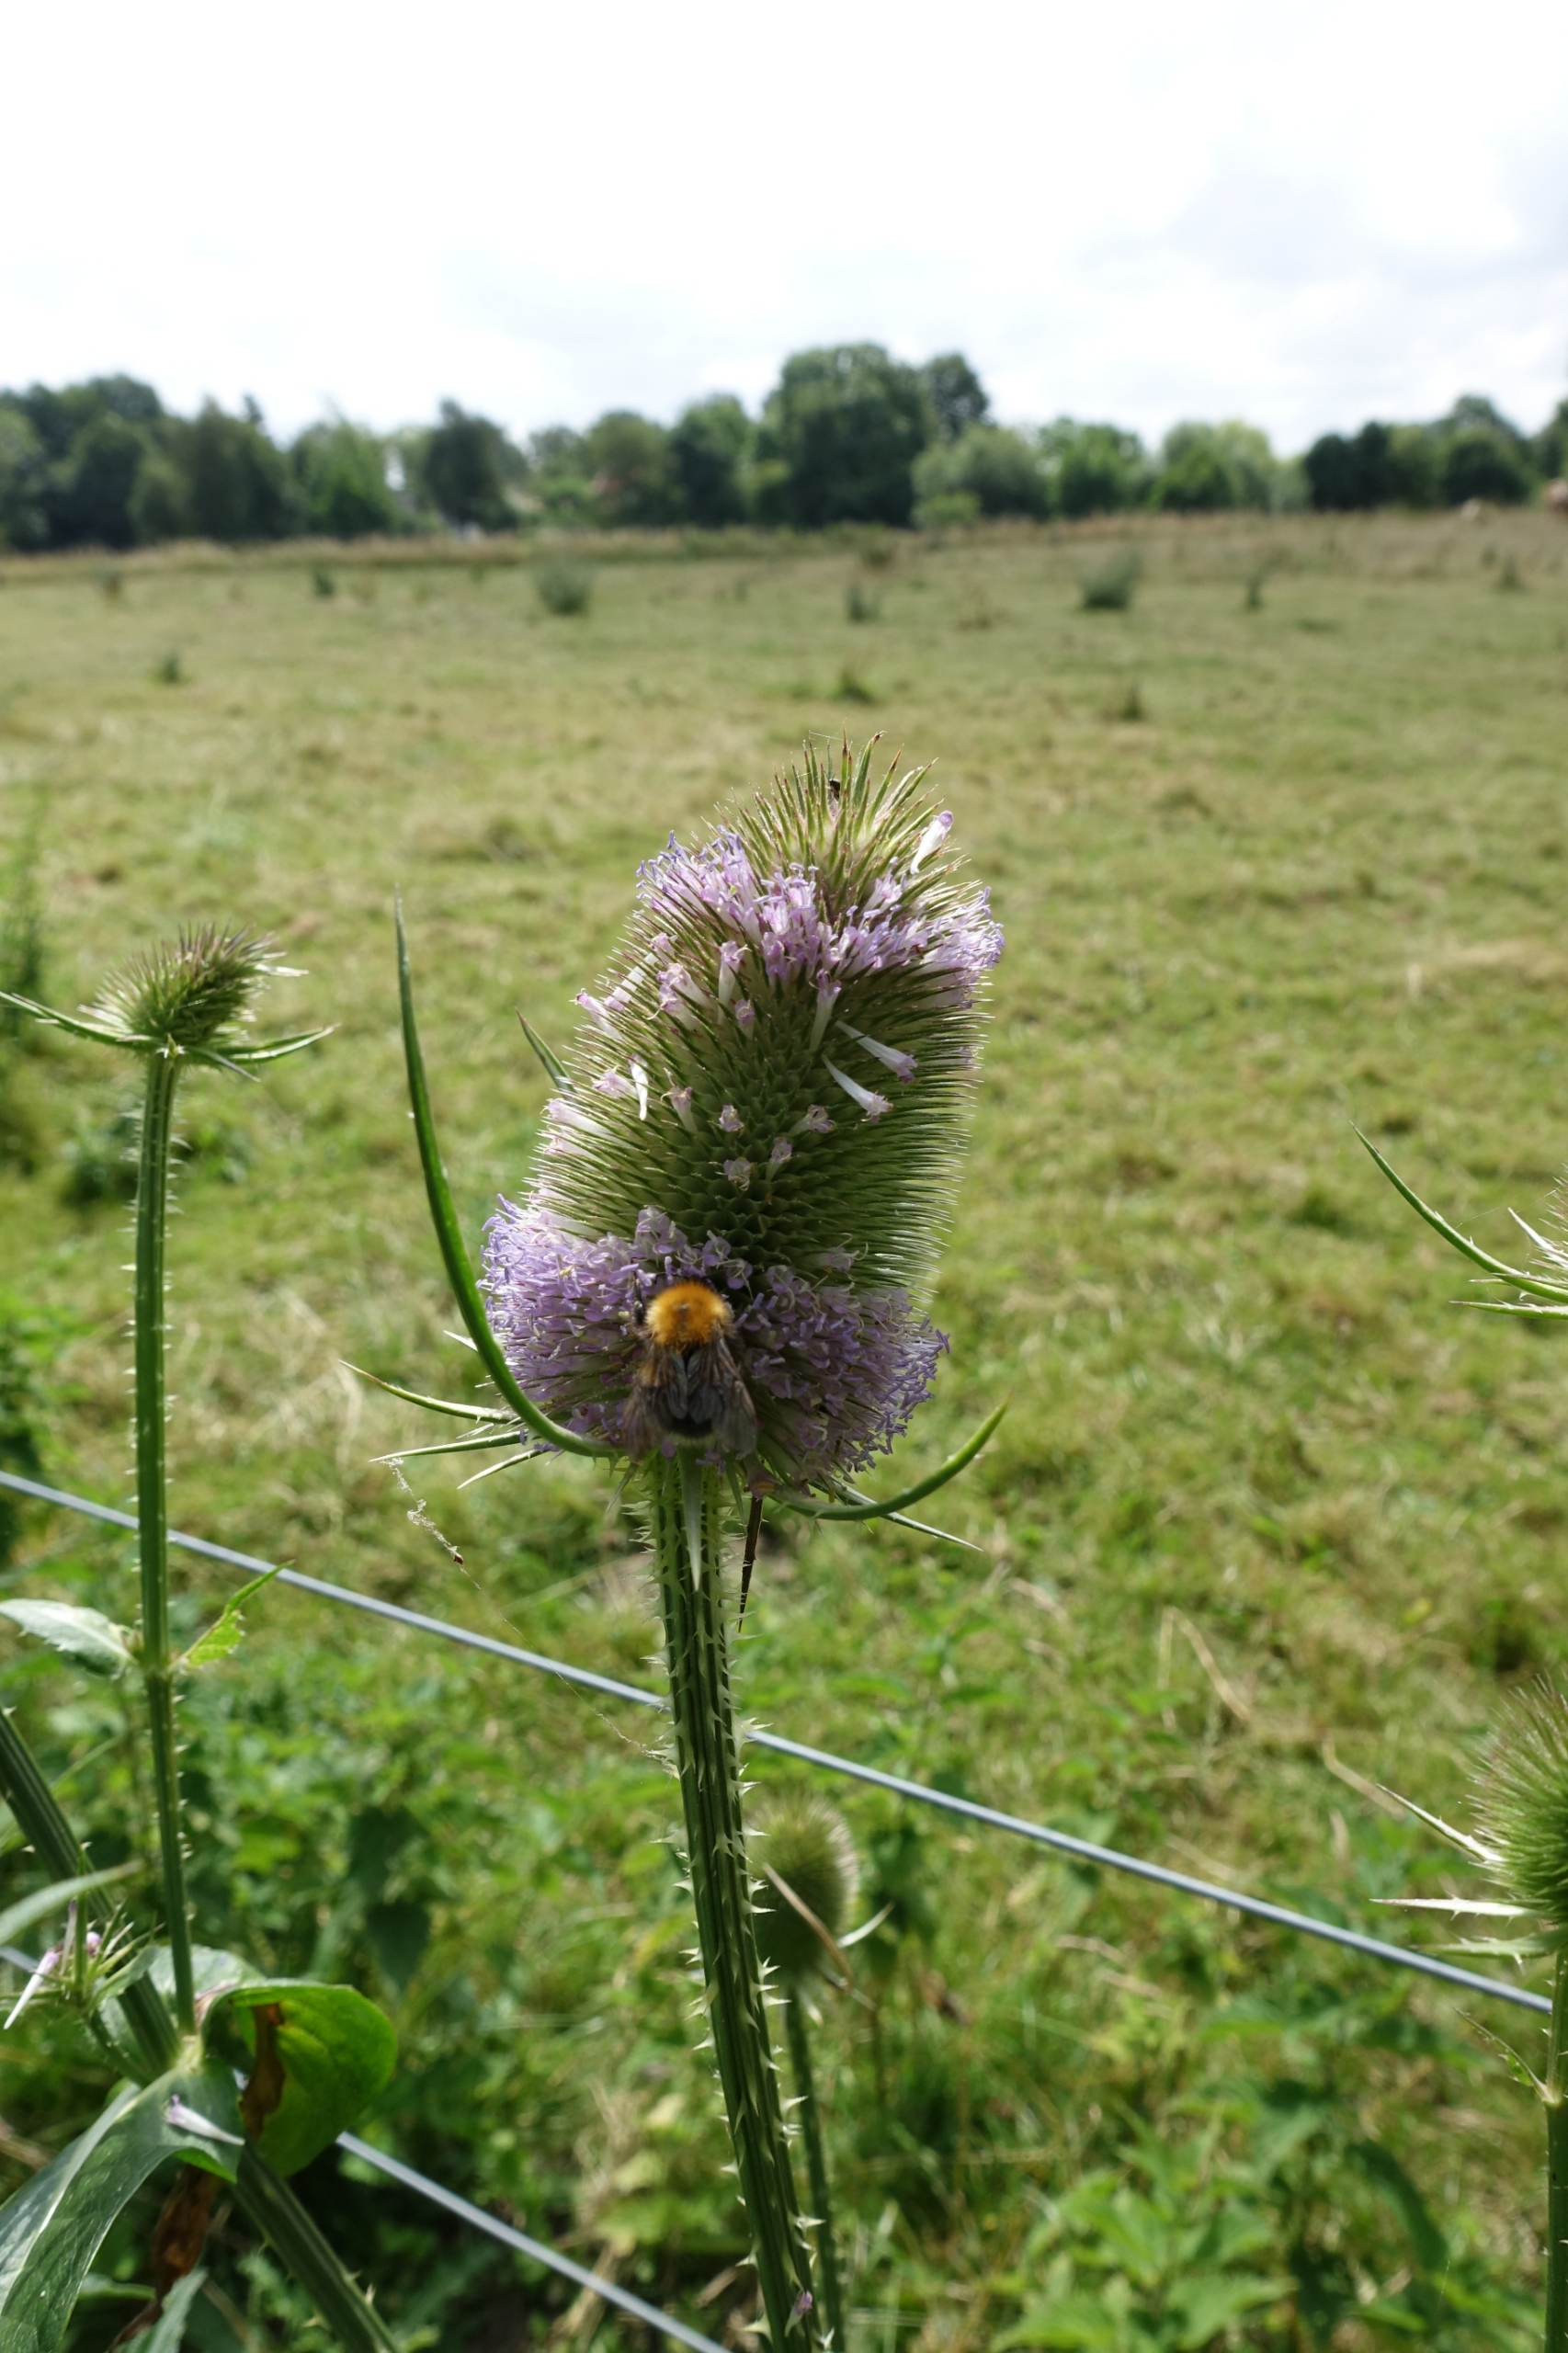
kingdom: Plantae
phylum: Tracheophyta
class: Magnoliopsida
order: Dipsacales
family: Caprifoliaceae
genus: Dipsacus
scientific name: Dipsacus fullonum
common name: Gærde-kartebolle
